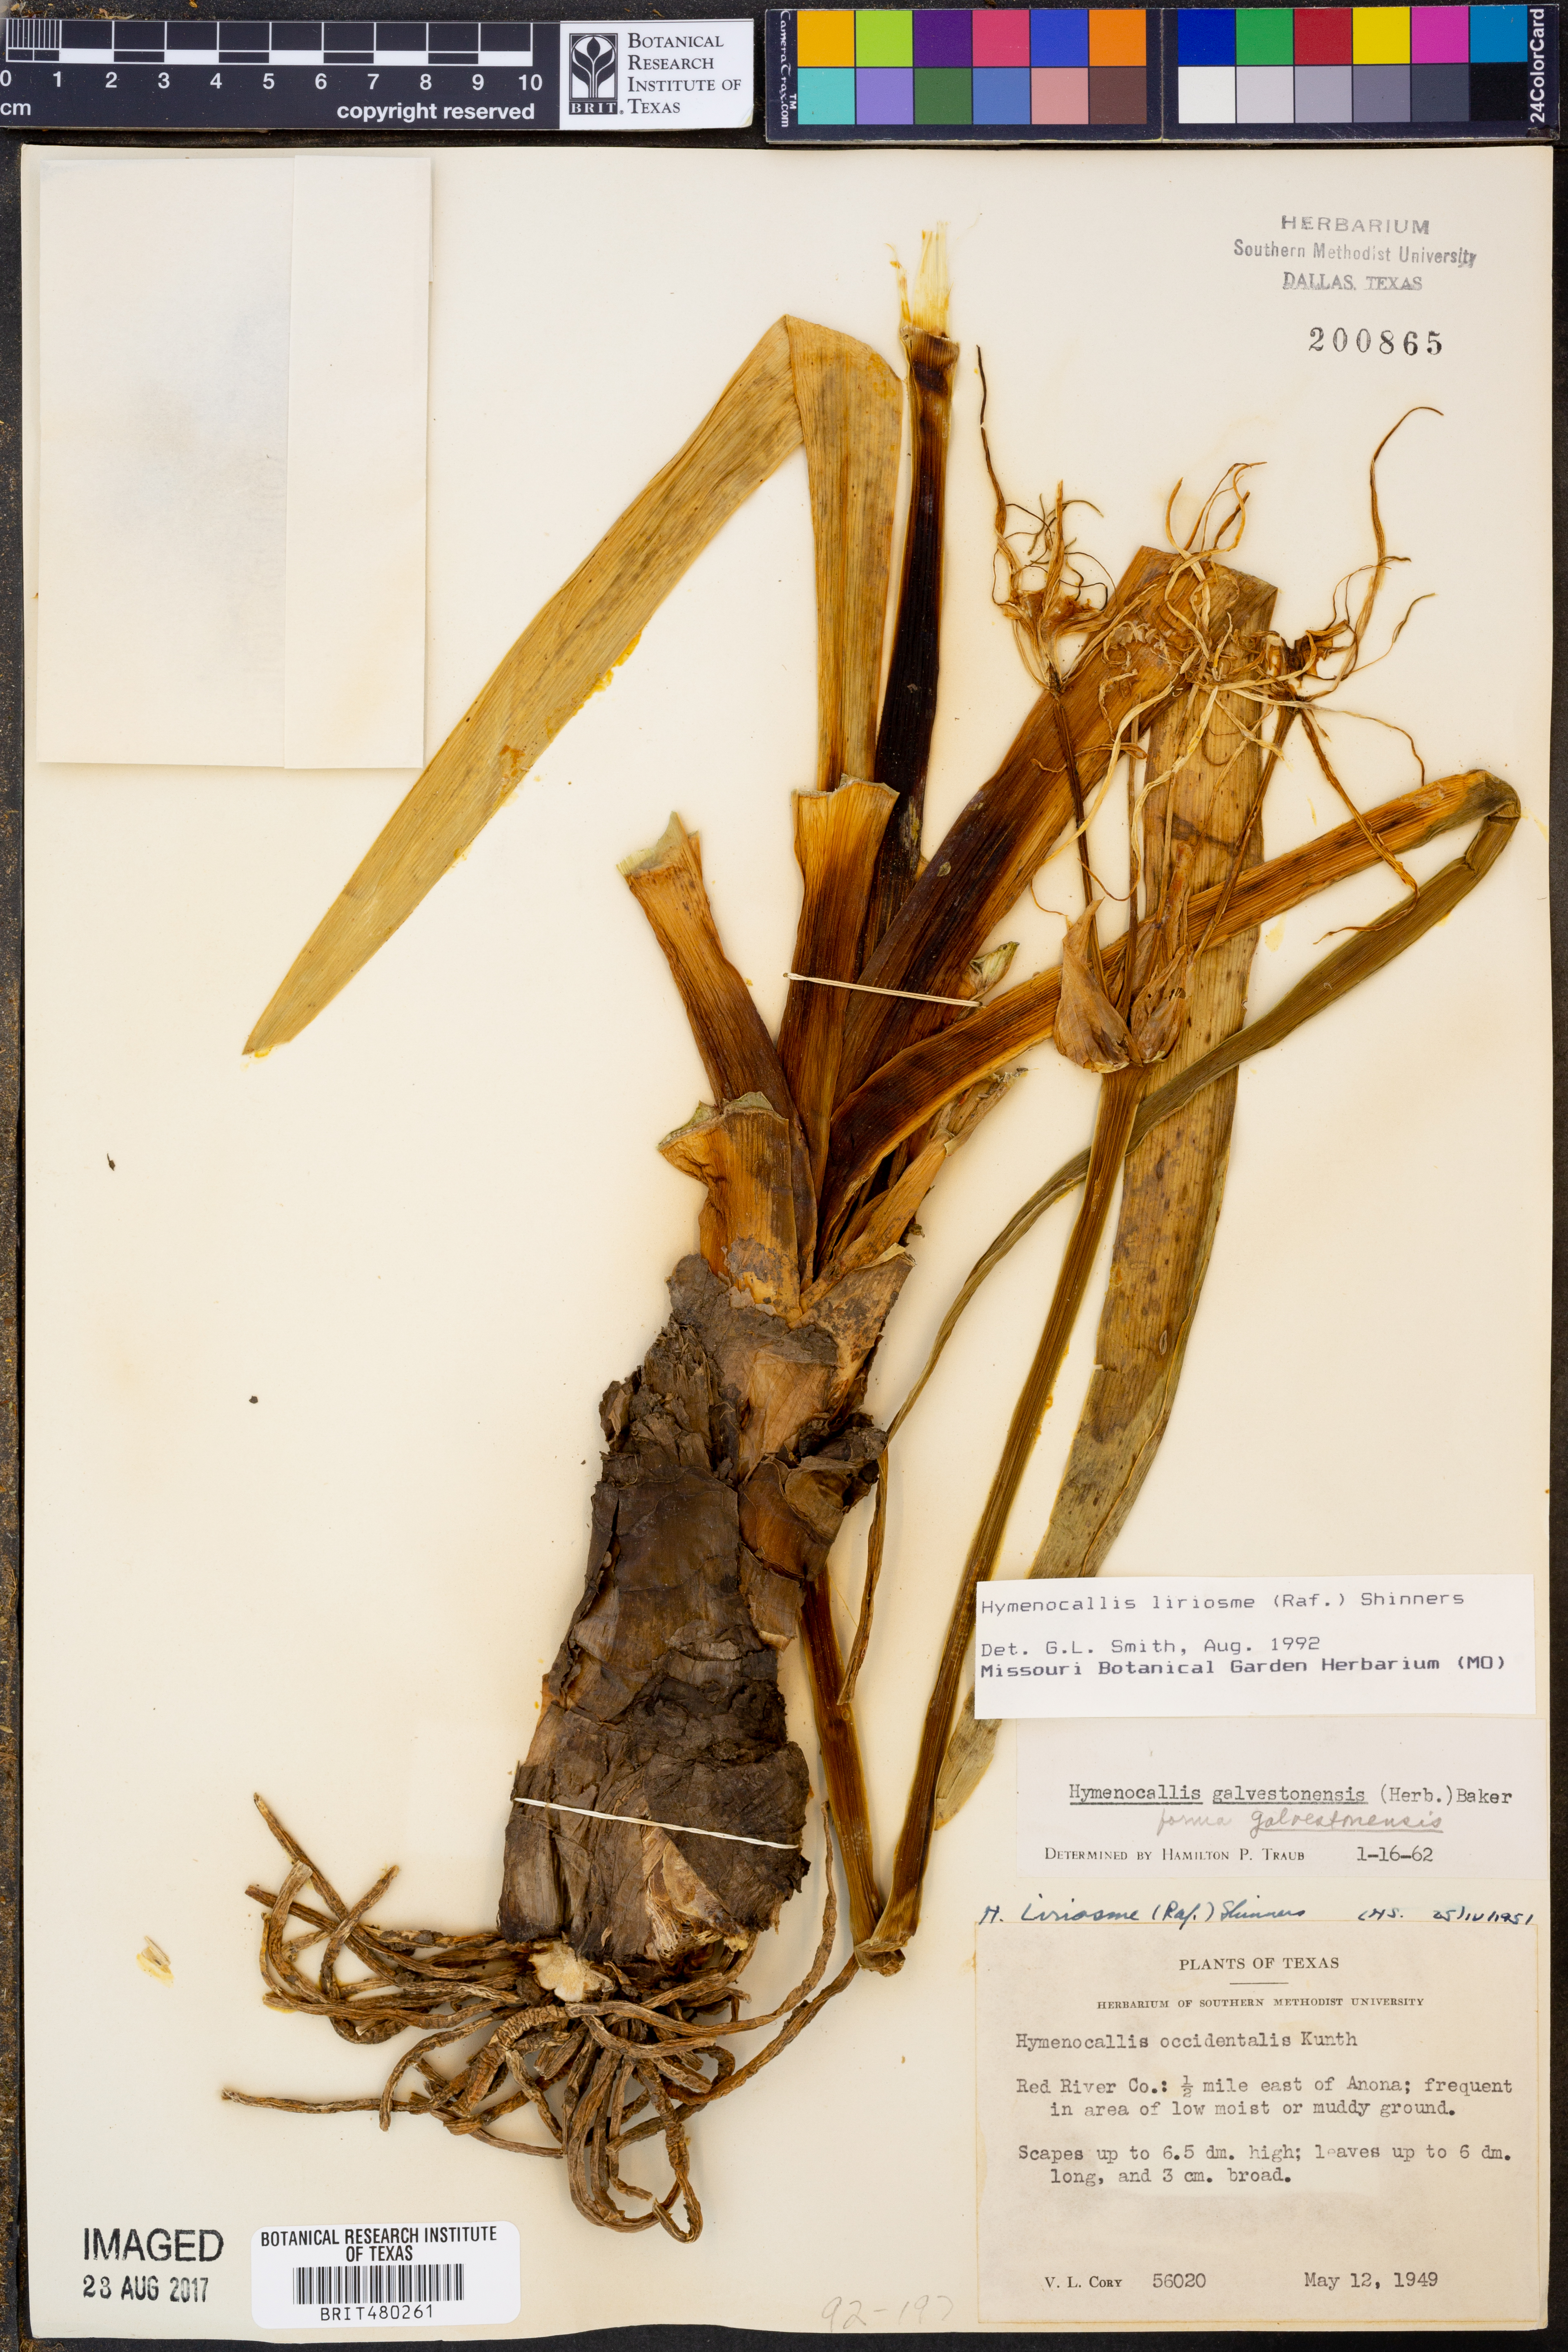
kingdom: Plantae
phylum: Tracheophyta
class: Liliopsida
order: Asparagales
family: Amaryllidaceae
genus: Hymenocallis
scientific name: Hymenocallis liriosme
